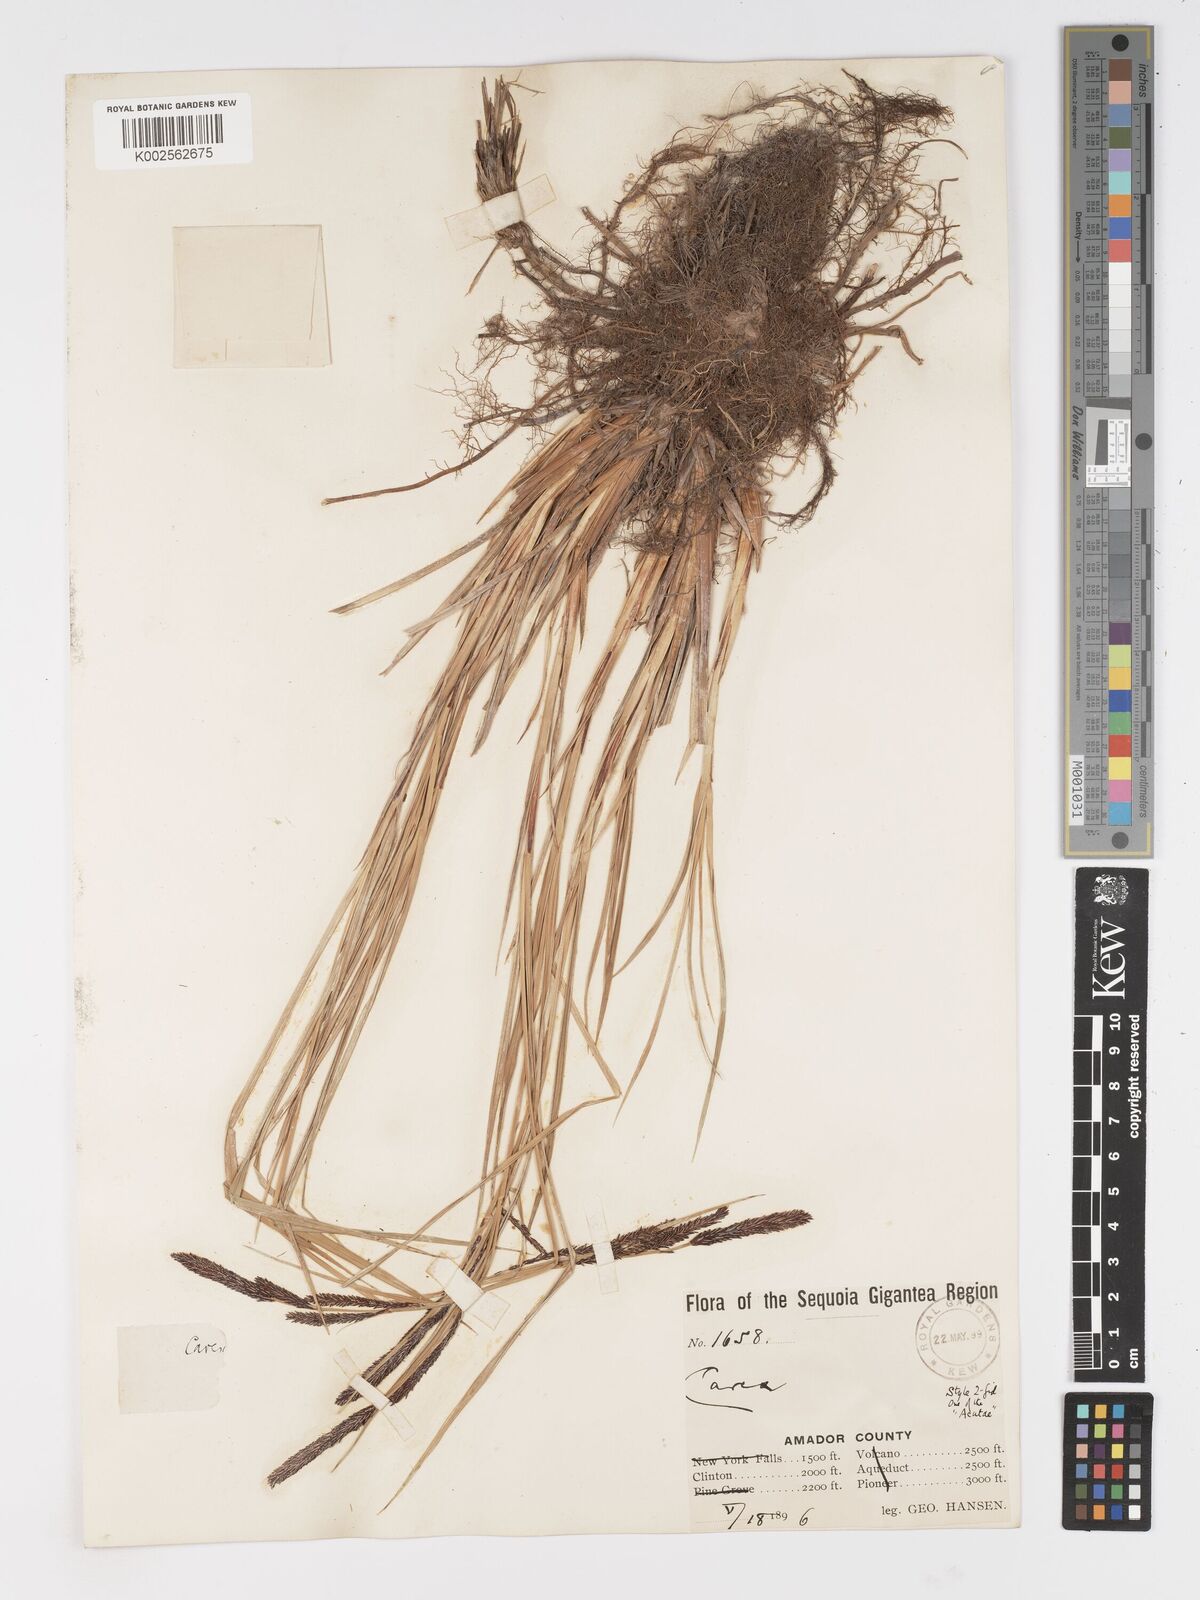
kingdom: Plantae
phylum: Tracheophyta
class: Liliopsida
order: Poales
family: Cyperaceae
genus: Carex
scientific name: Carex stricta
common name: Hummock sedge
